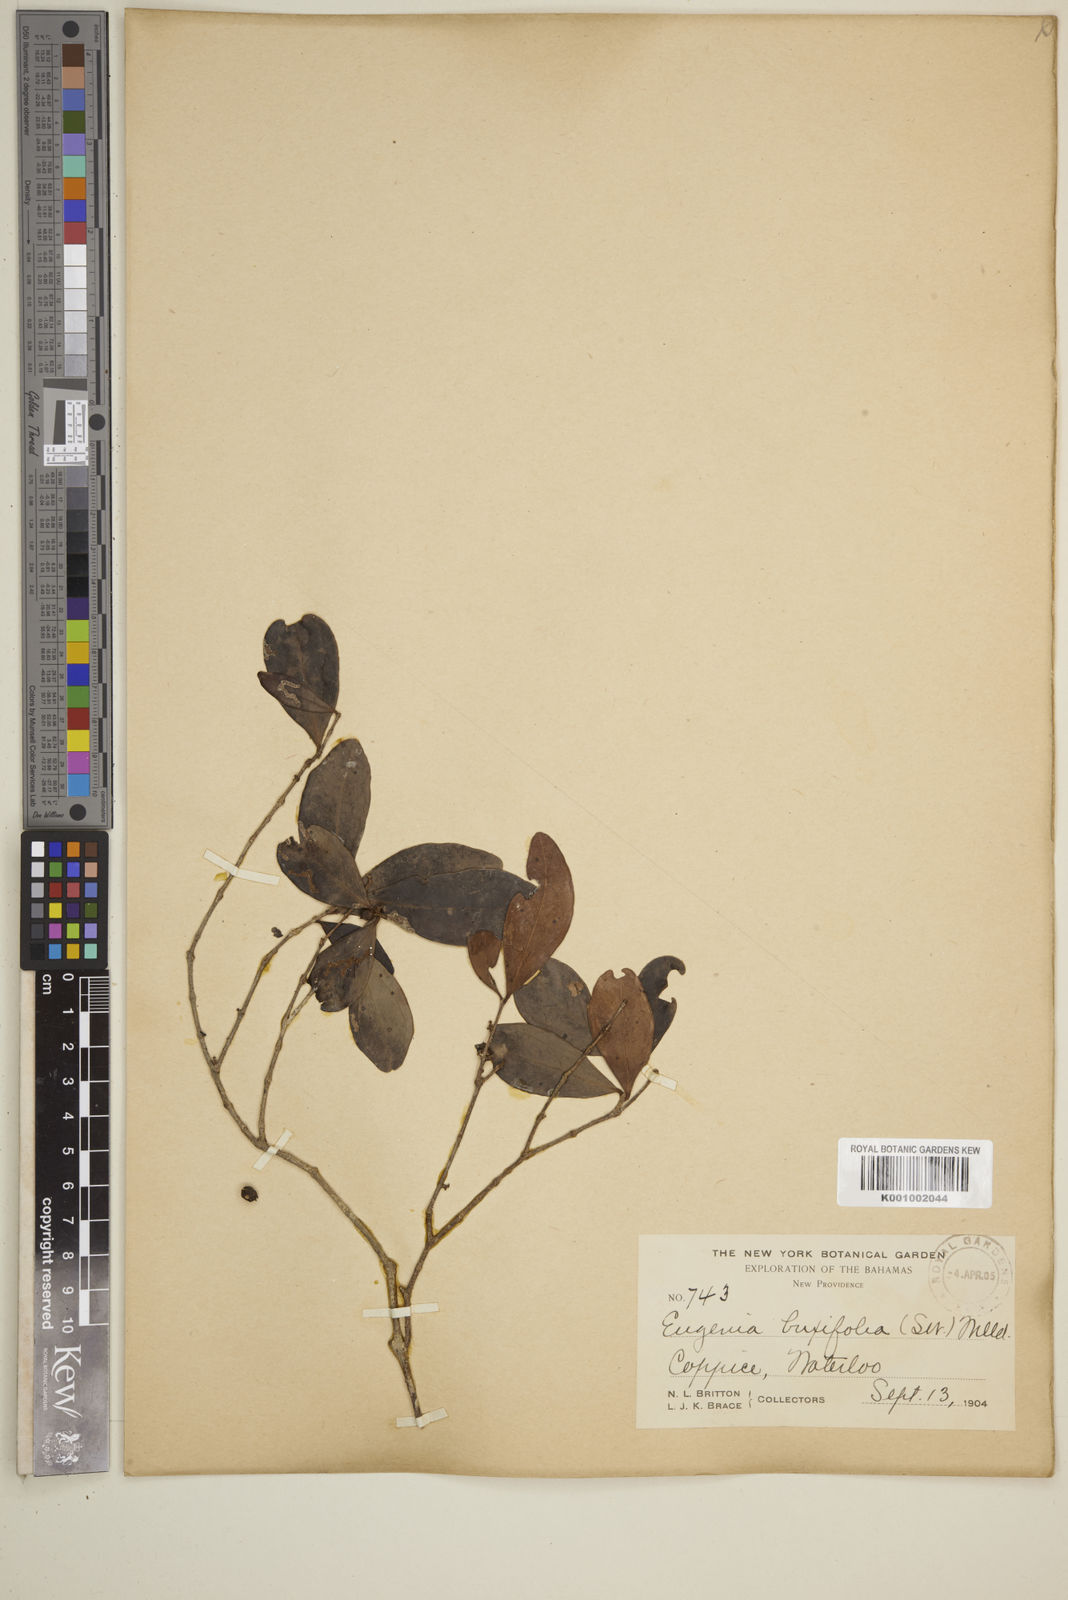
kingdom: Plantae
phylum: Tracheophyta
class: Magnoliopsida
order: Myrtales
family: Myrtaceae
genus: Eugenia
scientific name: Eugenia buxifolia
